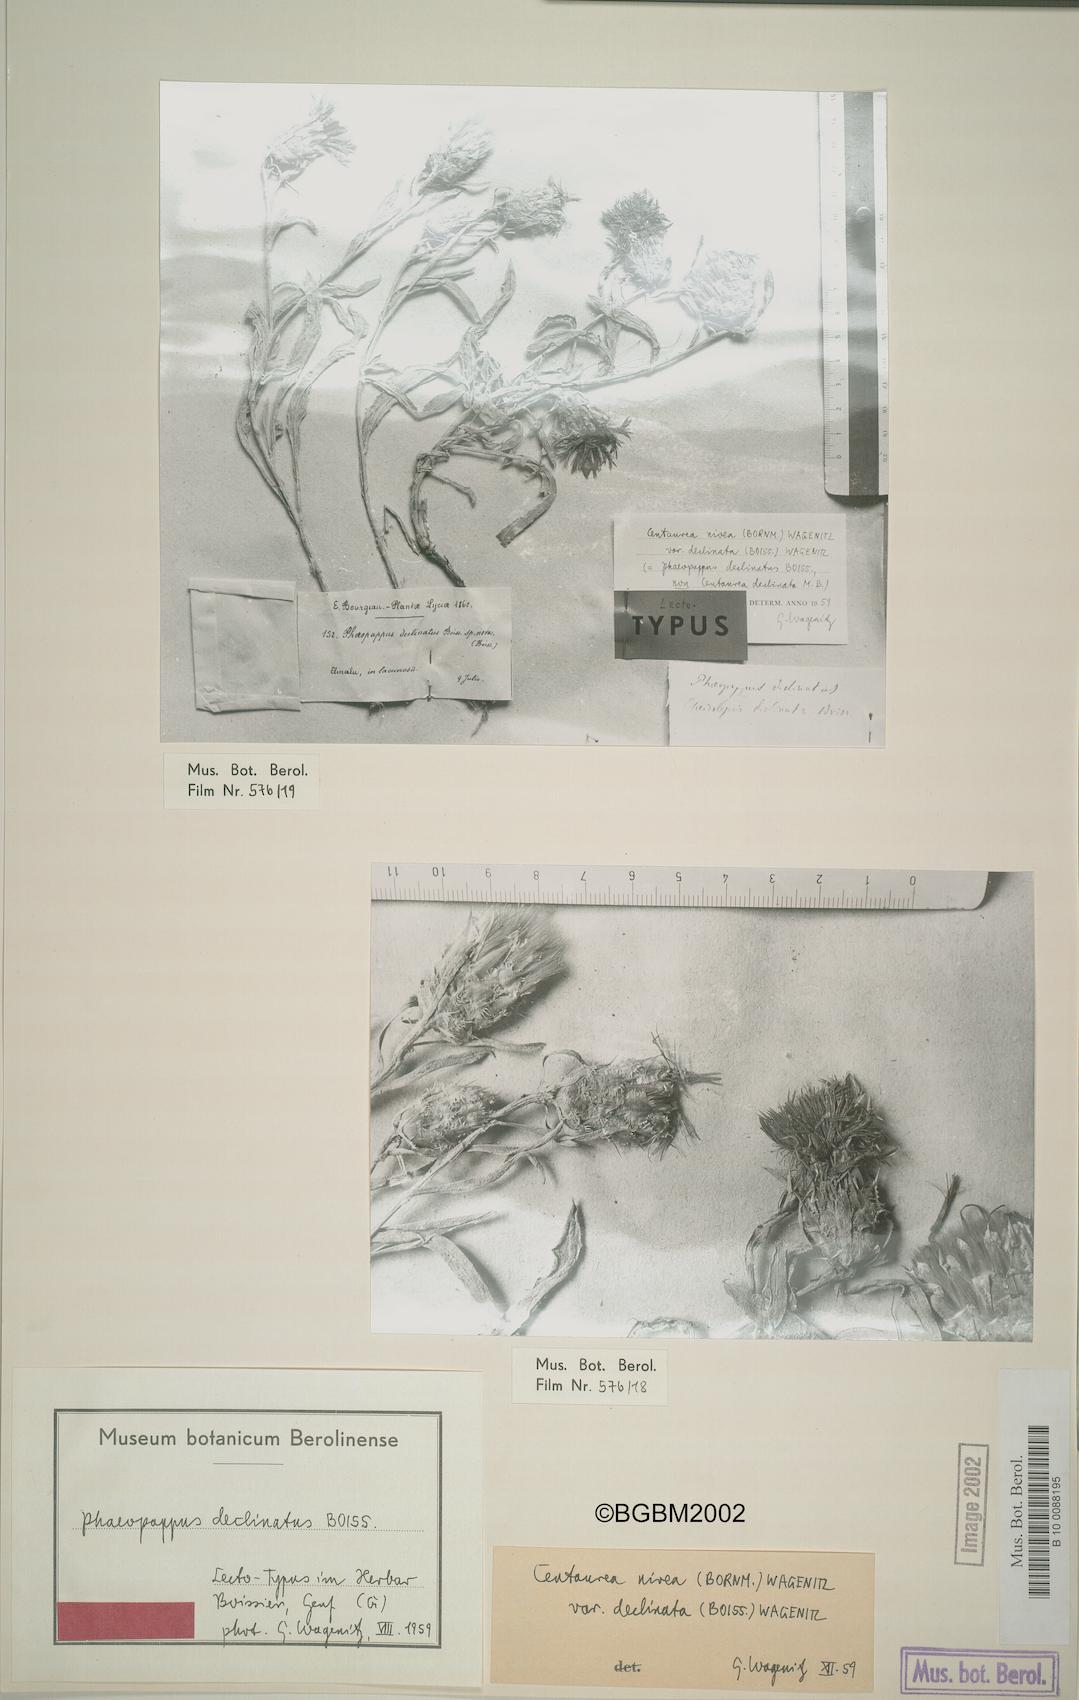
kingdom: Plantae
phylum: Tracheophyta
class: Magnoliopsida
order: Asterales
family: Asteraceae
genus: Centaurea
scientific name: Centaurea nivea
